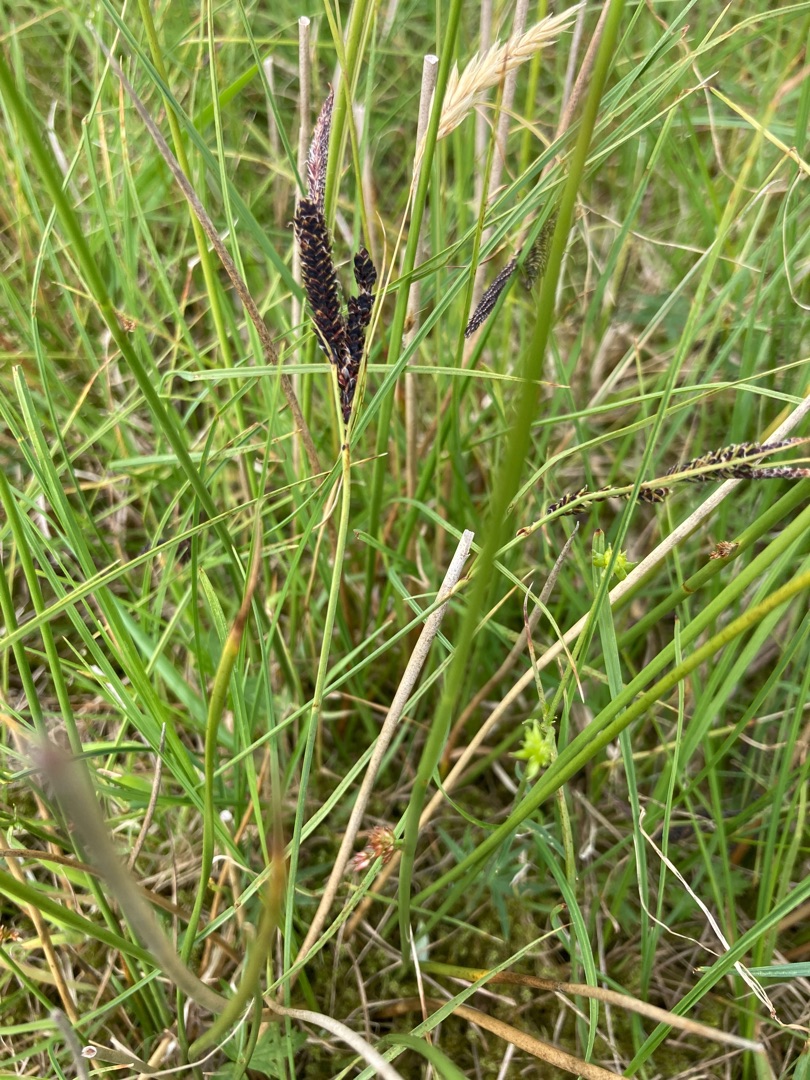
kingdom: Plantae
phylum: Tracheophyta
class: Liliopsida
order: Poales
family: Cyperaceae
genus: Carex
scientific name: Carex nigra
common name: Almindelig star
